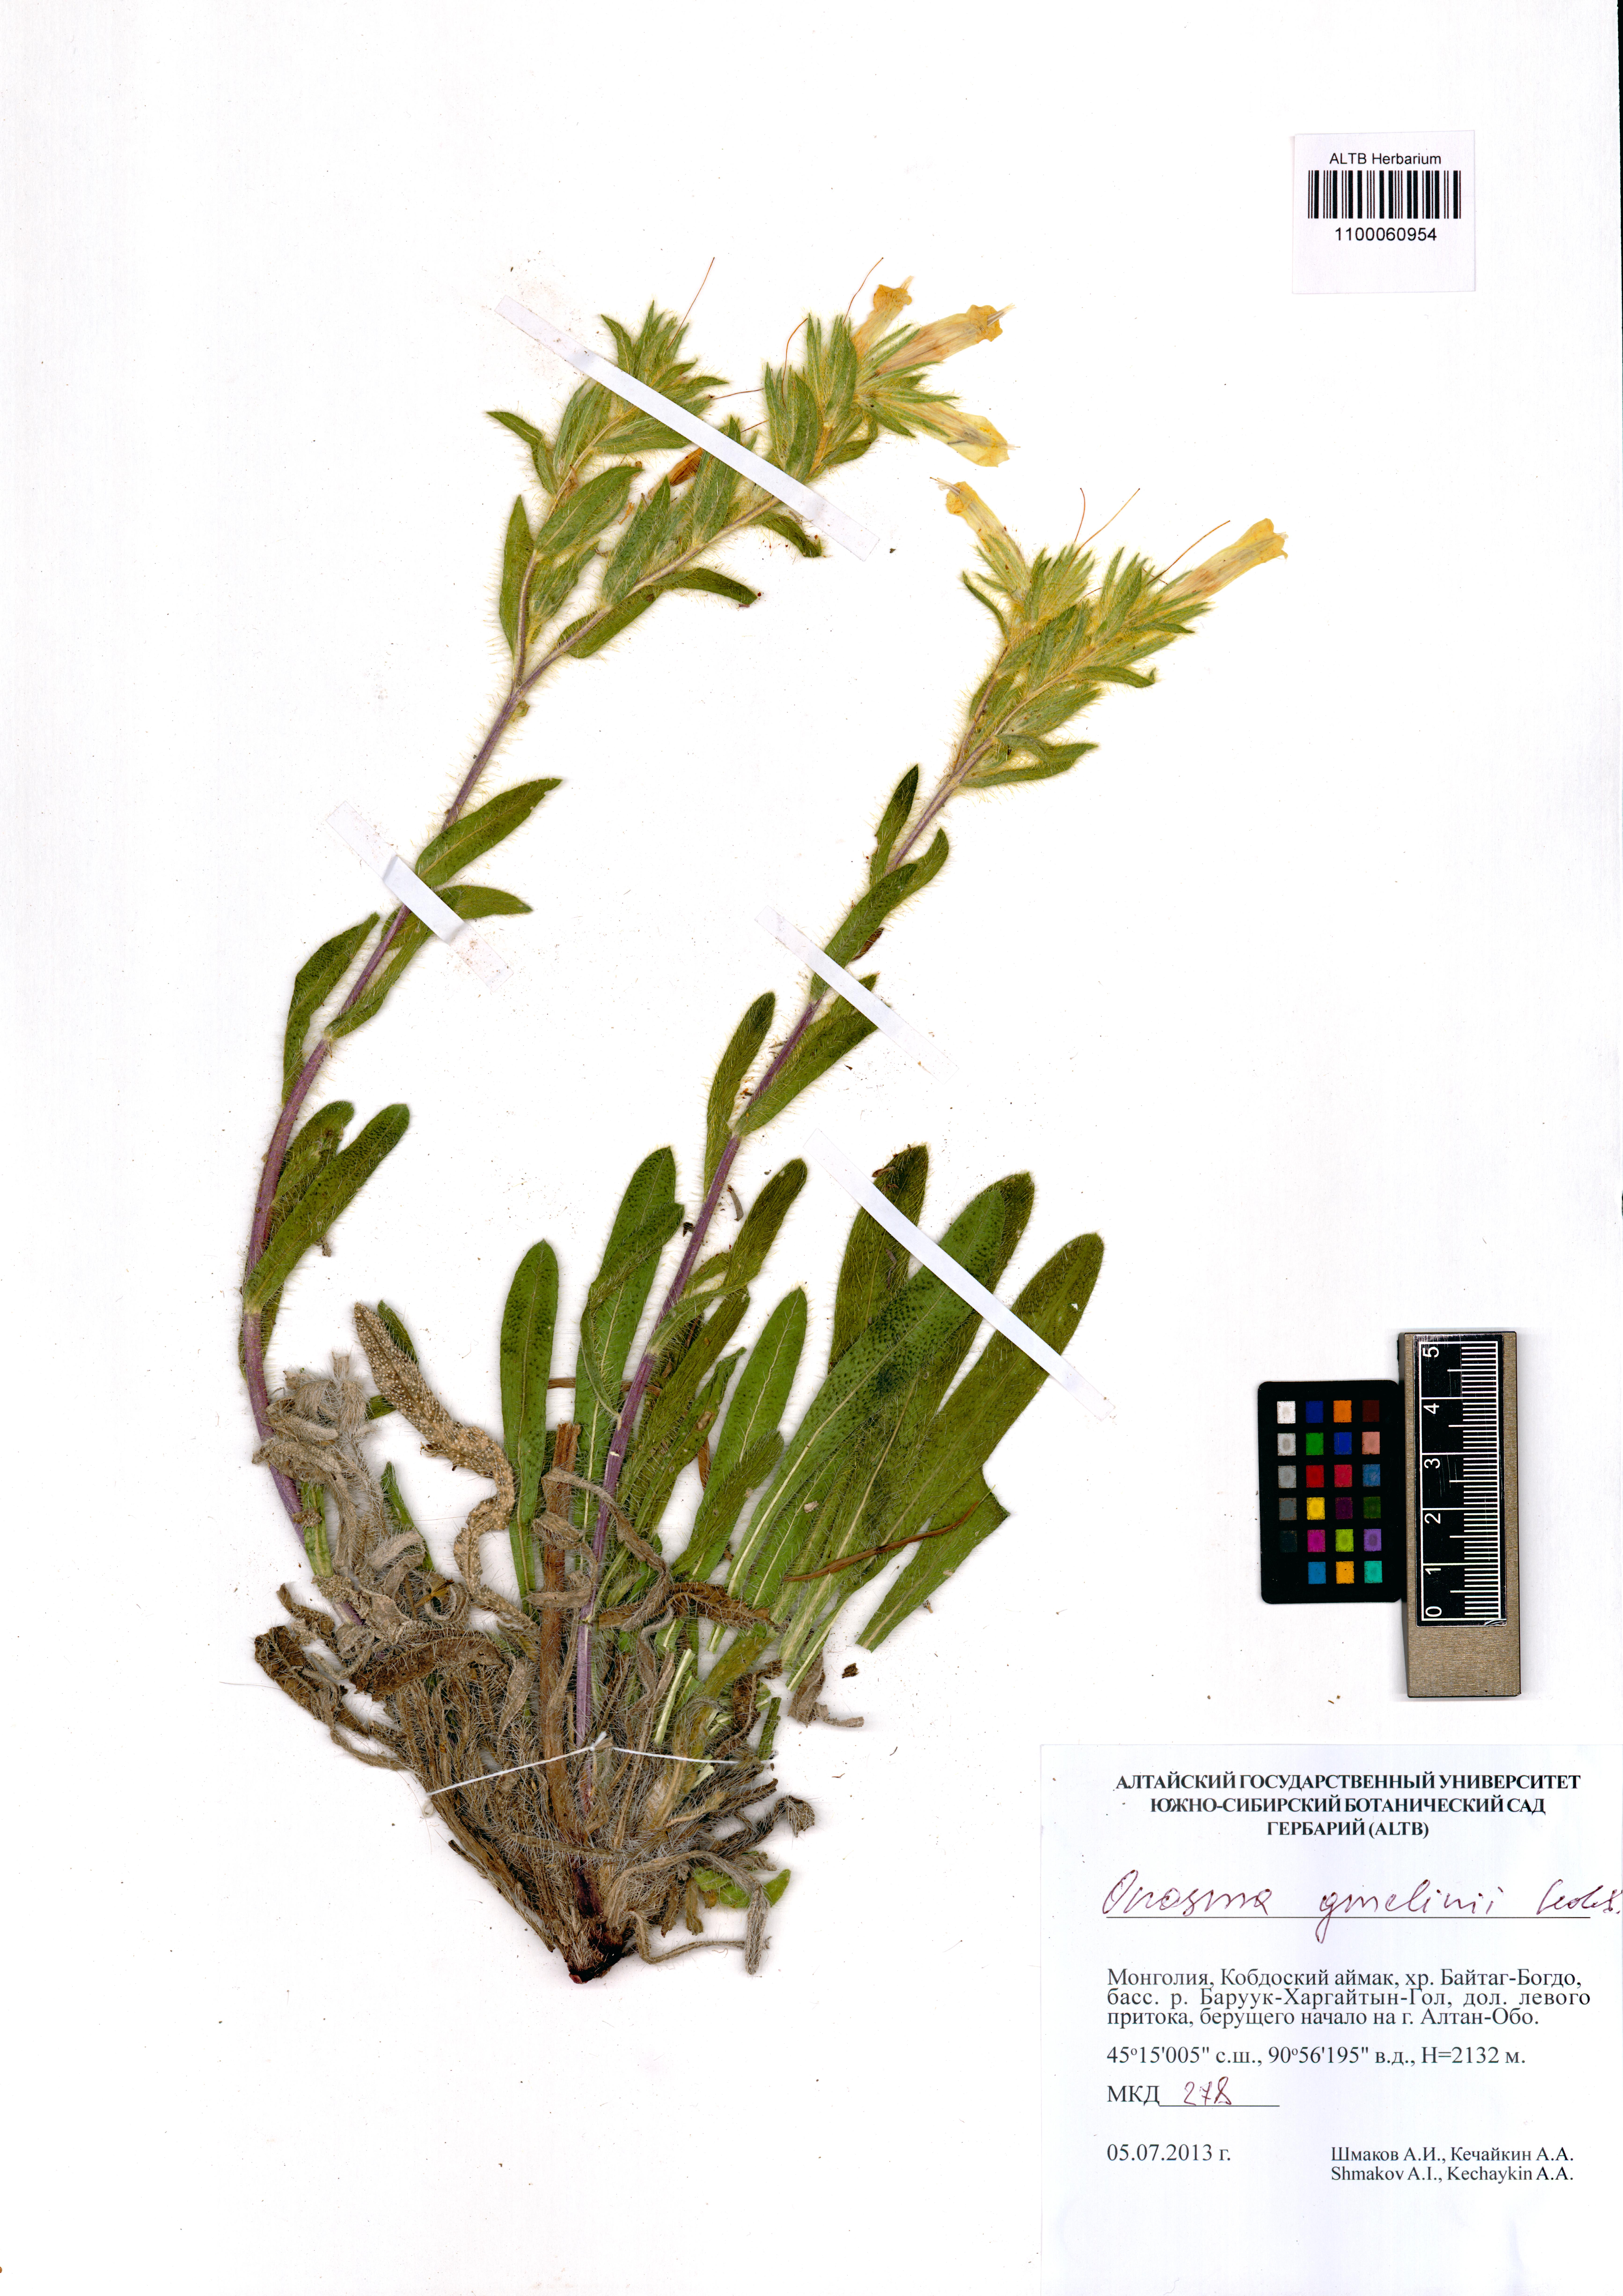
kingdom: Plantae
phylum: Tracheophyta
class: Magnoliopsida
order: Boraginales
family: Boraginaceae
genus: Onosma
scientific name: Onosma gmelinii
